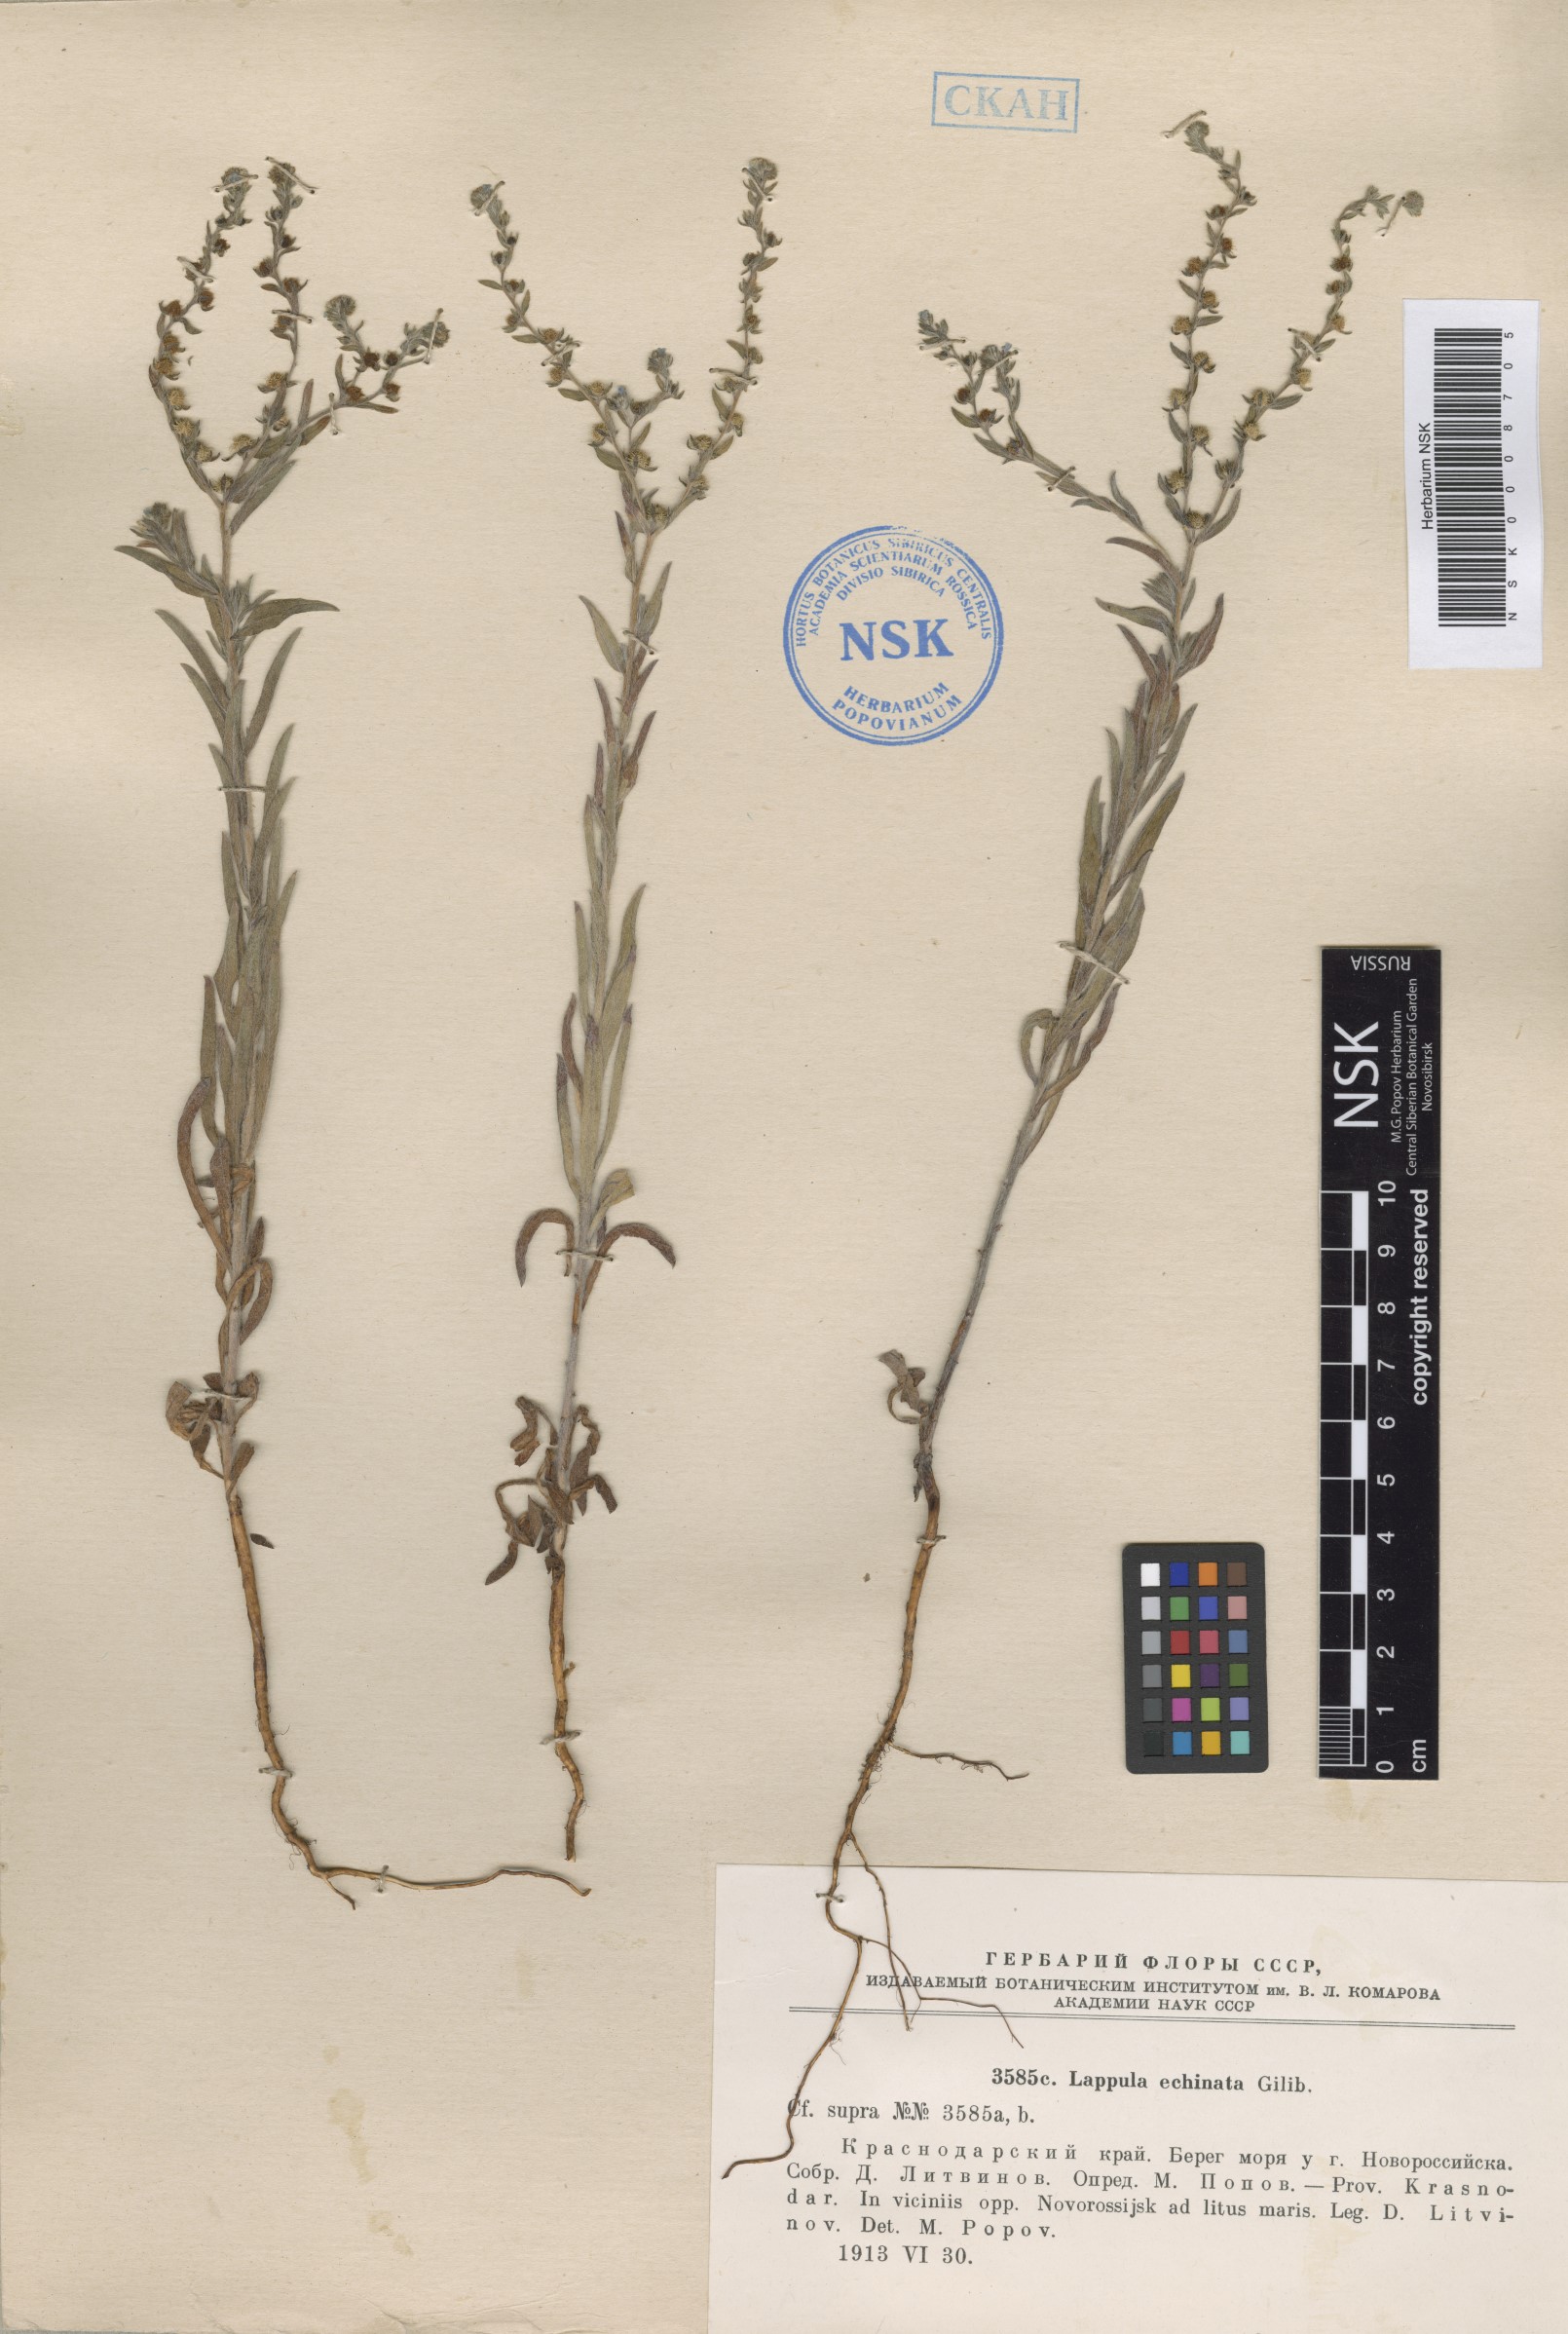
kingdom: Plantae
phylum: Tracheophyta
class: Magnoliopsida
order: Boraginales
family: Boraginaceae
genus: Lappula
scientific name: Lappula squarrosa
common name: European stickseed
